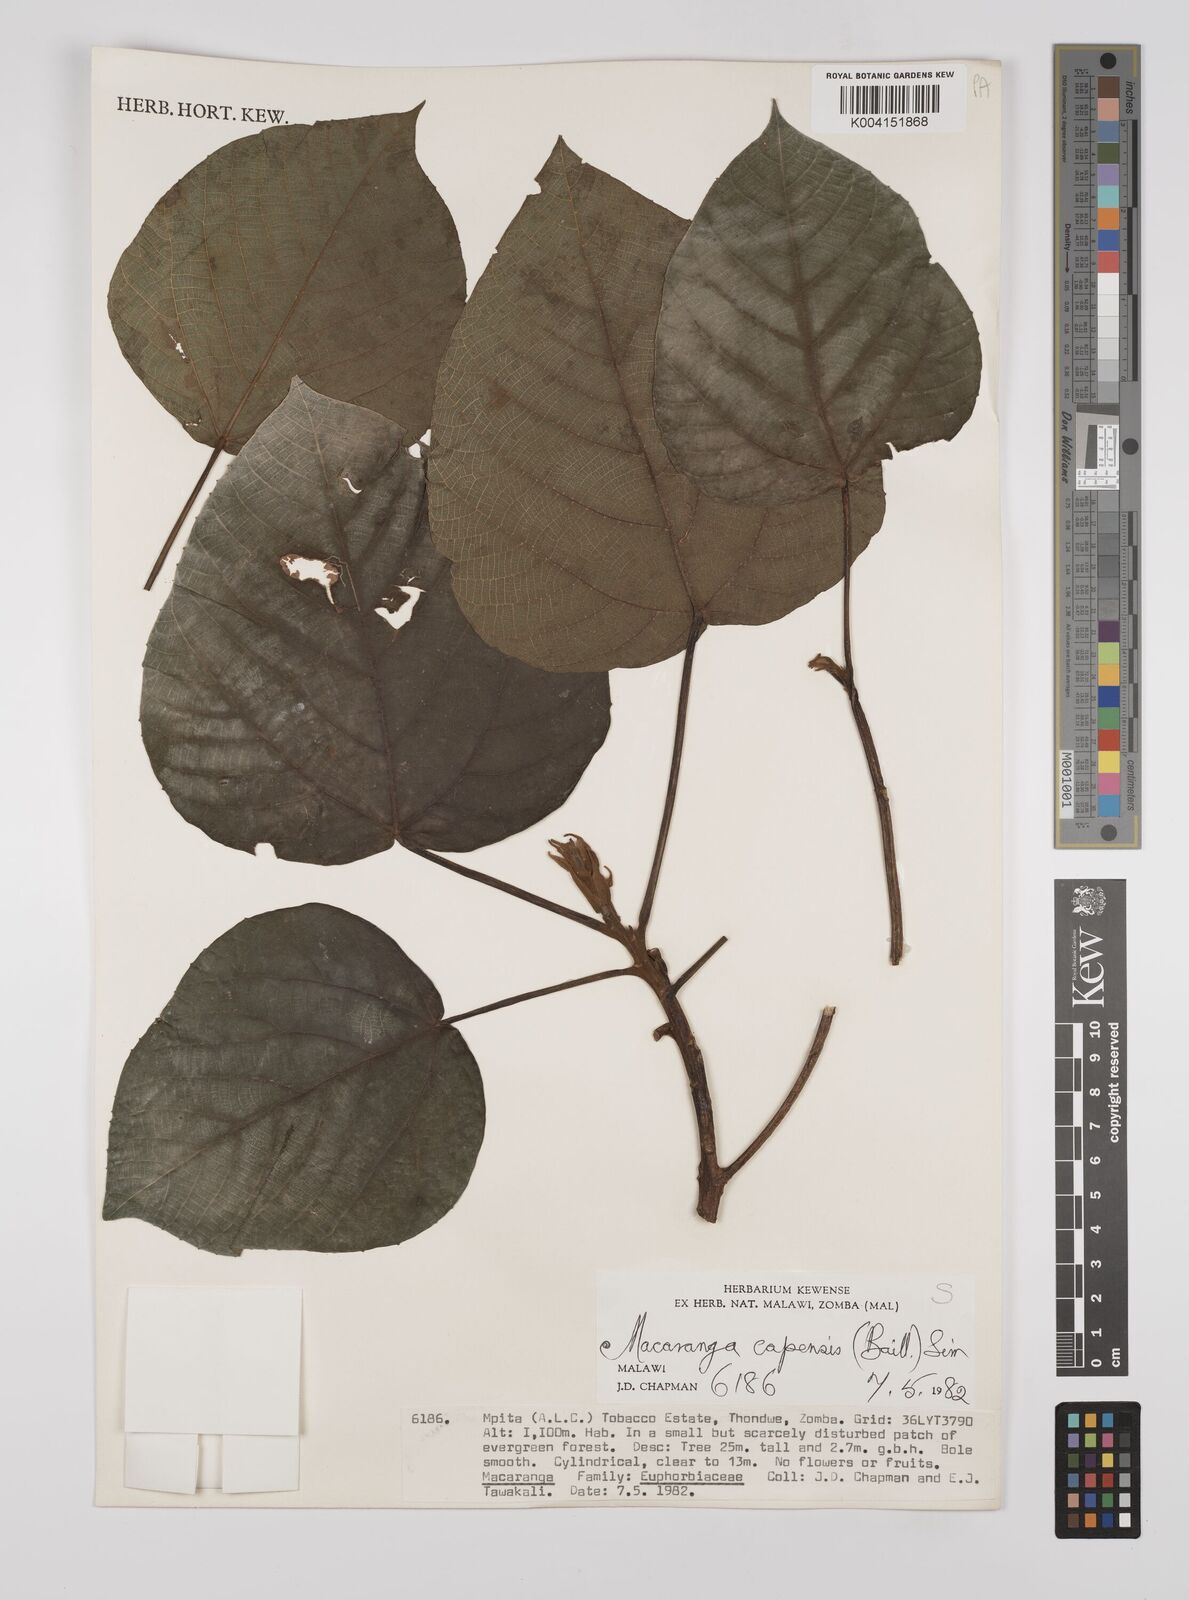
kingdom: Plantae
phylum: Tracheophyta
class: Magnoliopsida
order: Malpighiales
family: Euphorbiaceae
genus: Macaranga
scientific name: Macaranga capensis
